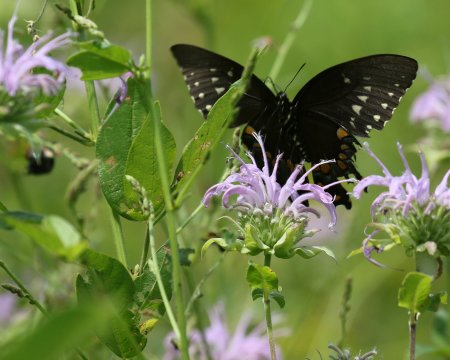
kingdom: Animalia
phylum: Arthropoda
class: Insecta
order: Lepidoptera
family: Papilionidae
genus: Pterourus
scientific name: Pterourus troilus
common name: Spicebush Swallowtail
